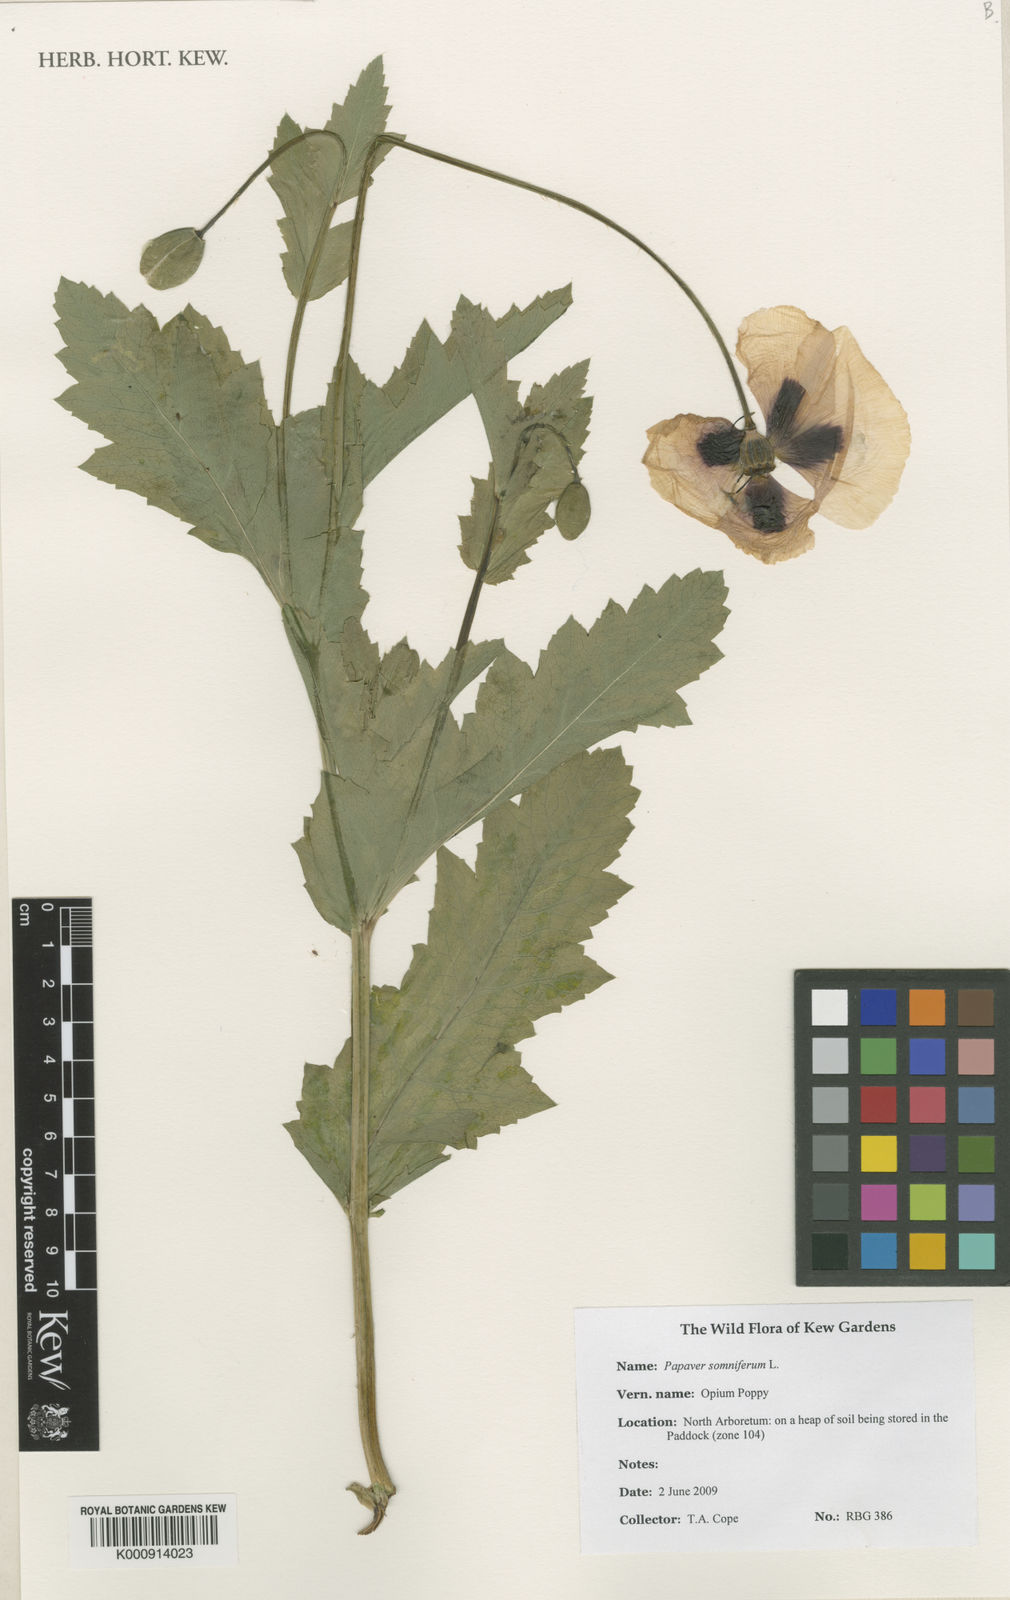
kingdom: Plantae
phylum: Tracheophyta
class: Magnoliopsida
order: Ranunculales
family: Papaveraceae
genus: Papaver
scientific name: Papaver somniferum
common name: Opium poppy
